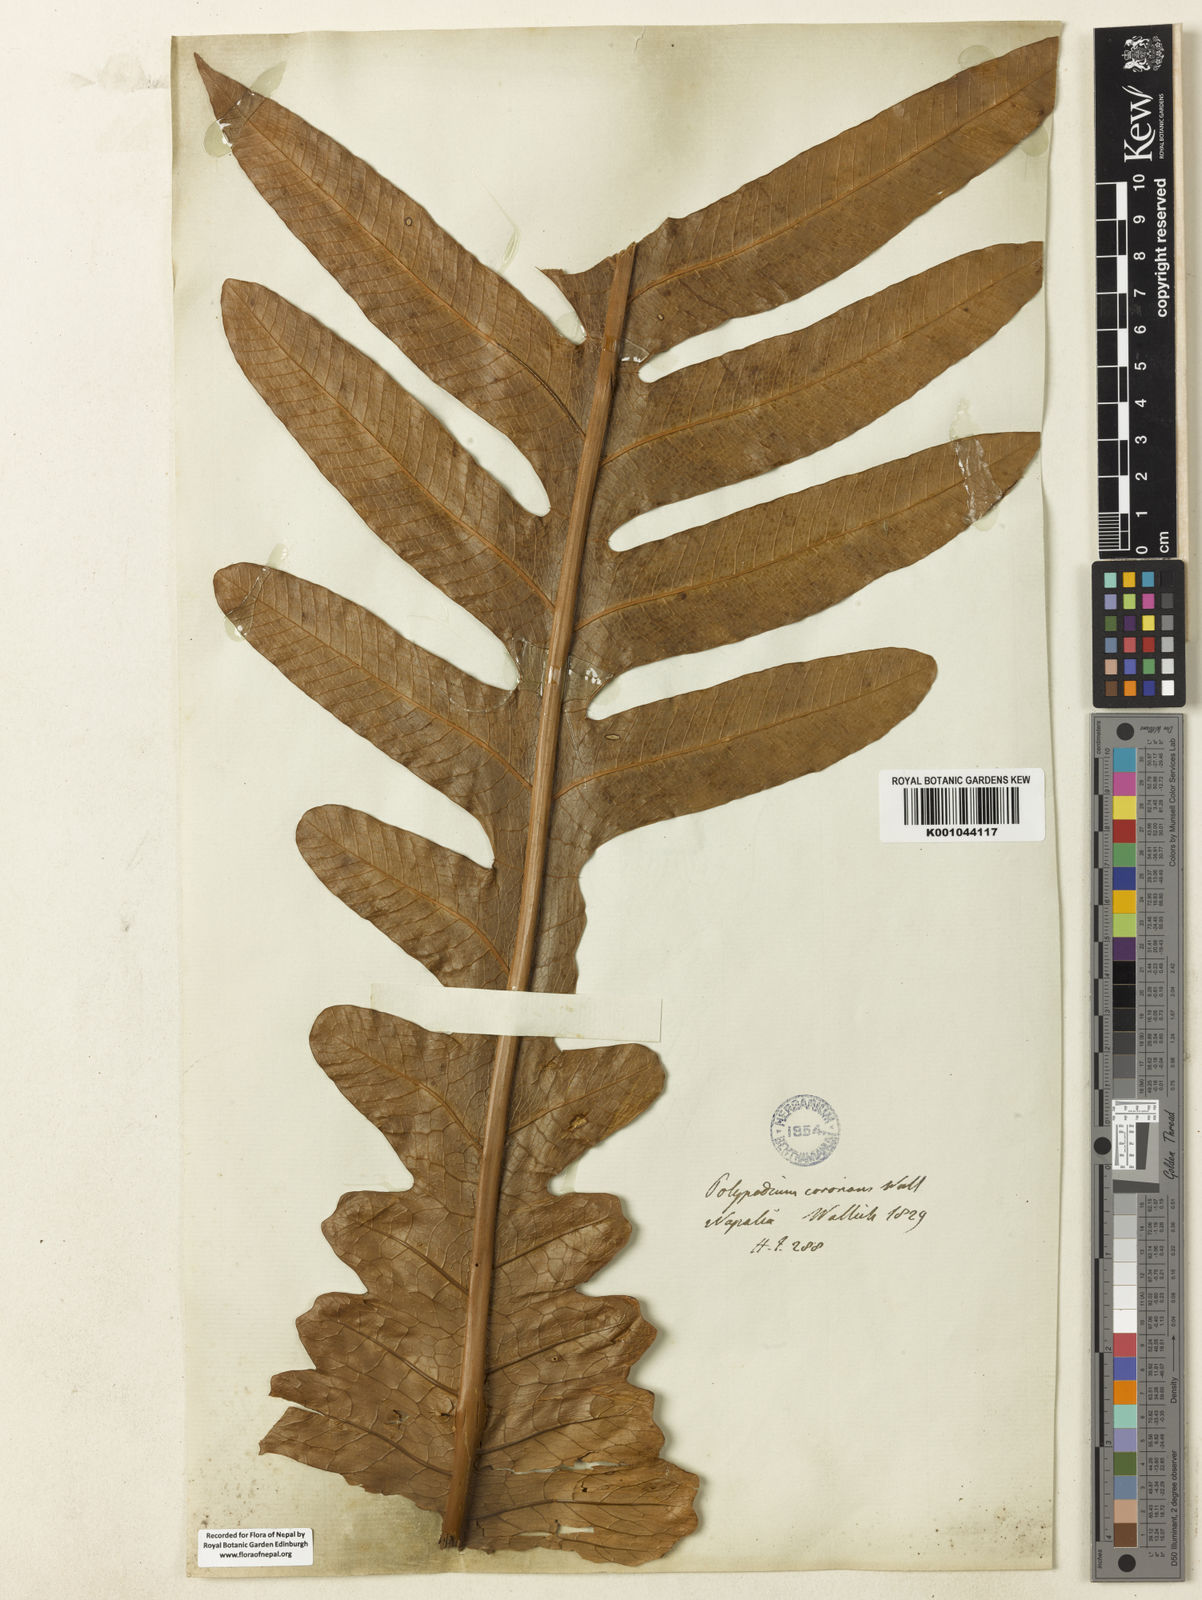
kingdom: Plantae
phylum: Tracheophyta
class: Polypodiopsida
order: Polypodiales
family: Polypodiaceae
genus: Drynaria
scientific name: Drynaria coronans
